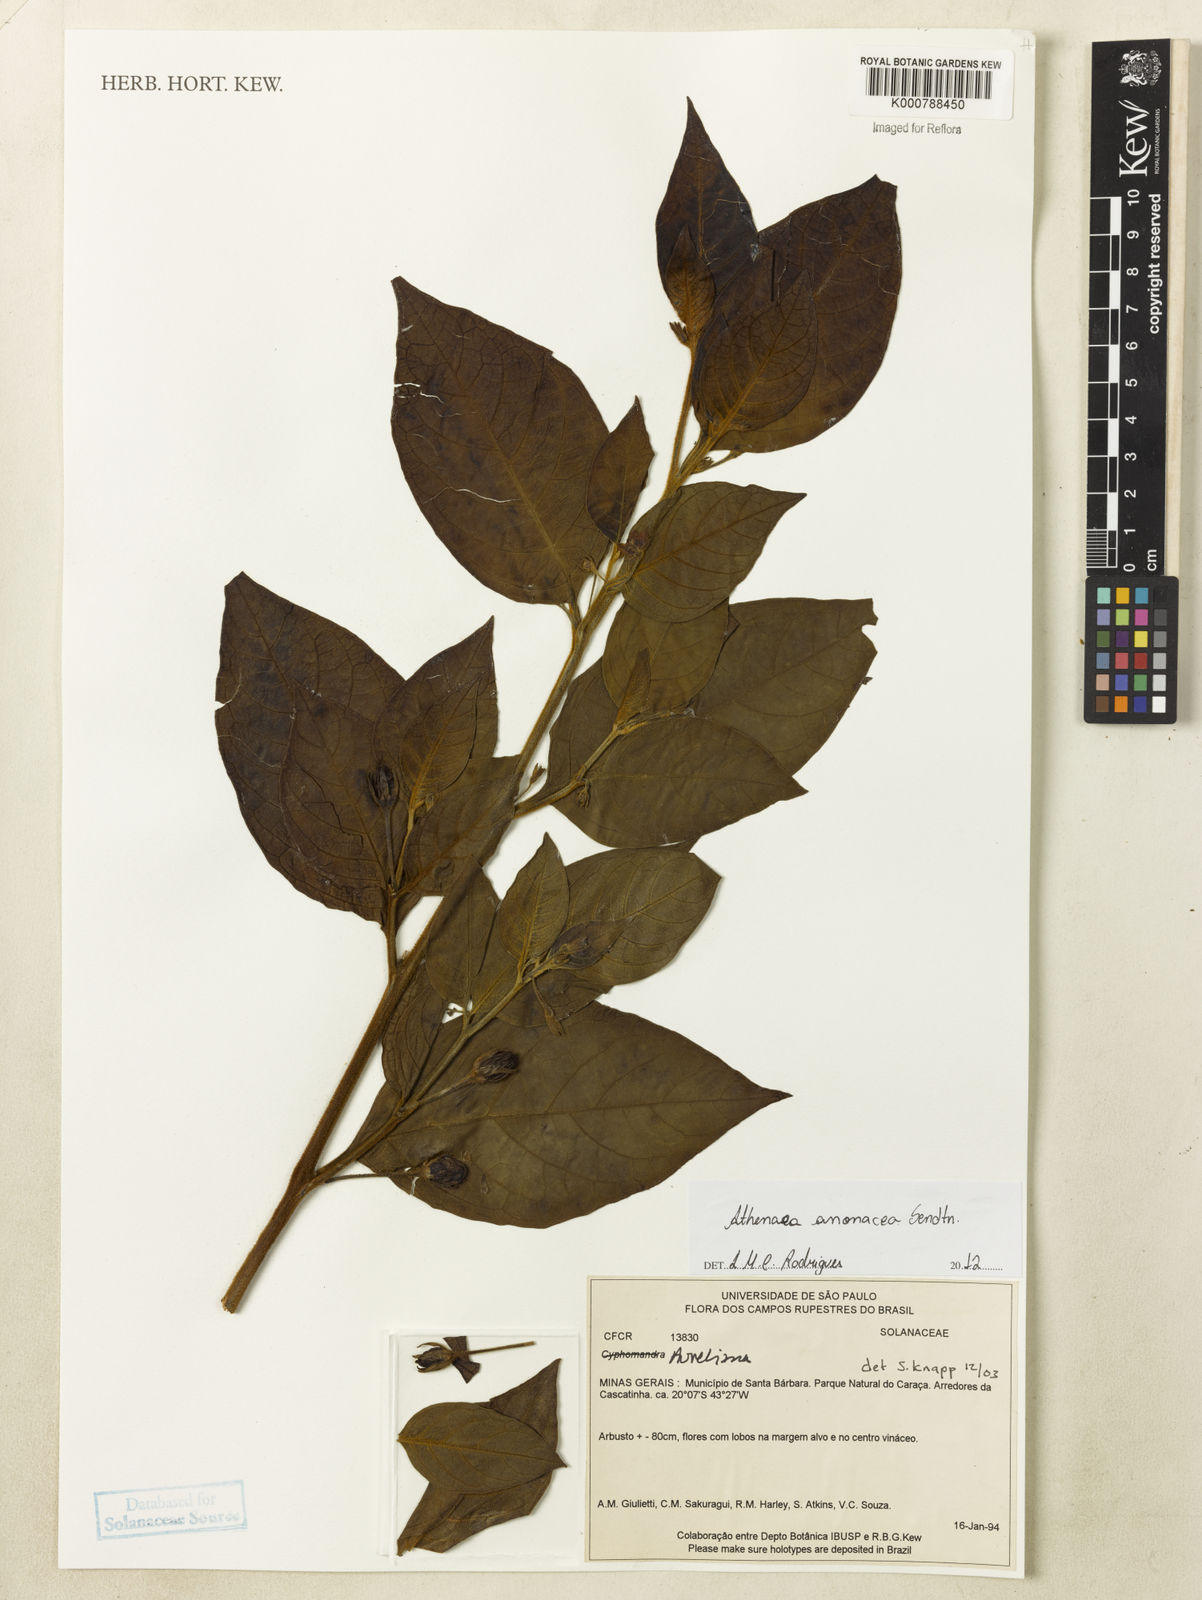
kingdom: Plantae
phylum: Tracheophyta
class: Magnoliopsida
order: Solanales
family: Solanaceae
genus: Athenaea
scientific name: Athenaea anonacea
